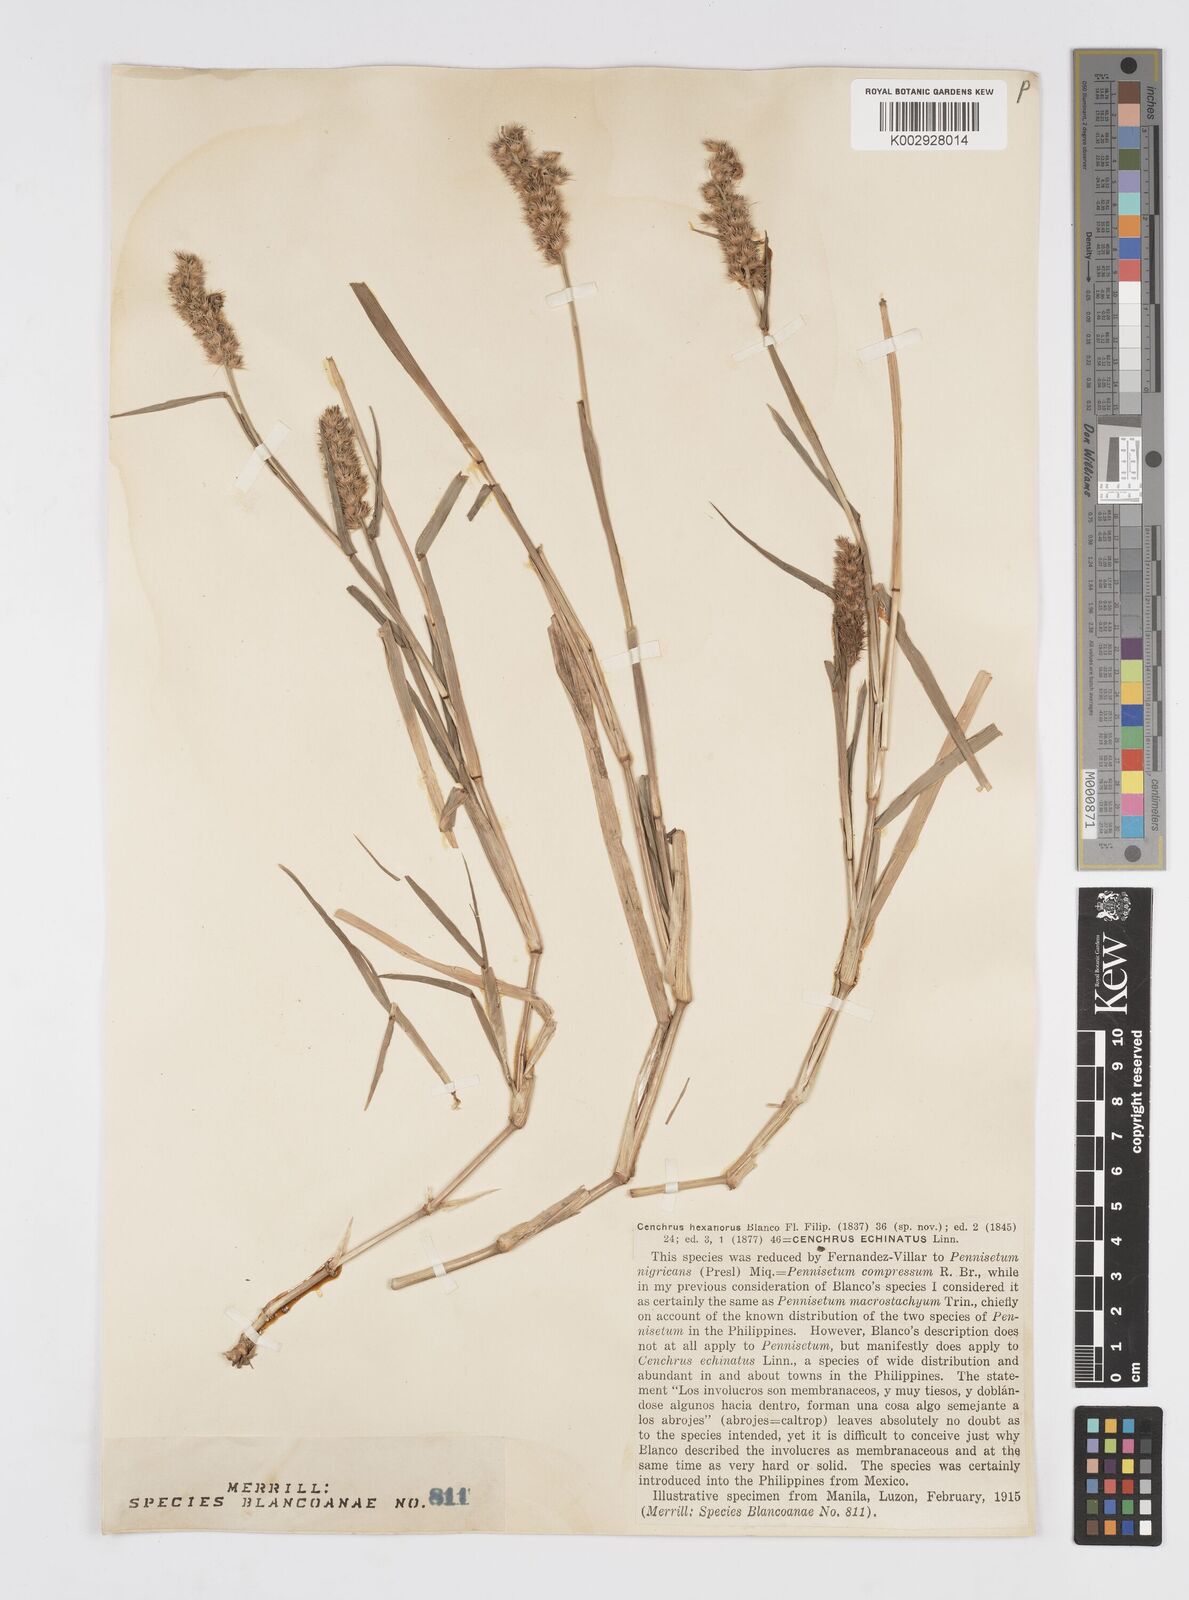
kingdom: Plantae
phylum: Tracheophyta
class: Liliopsida
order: Poales
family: Poaceae
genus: Cenchrus
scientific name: Cenchrus brownii
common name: Slim-bristle sandbur
